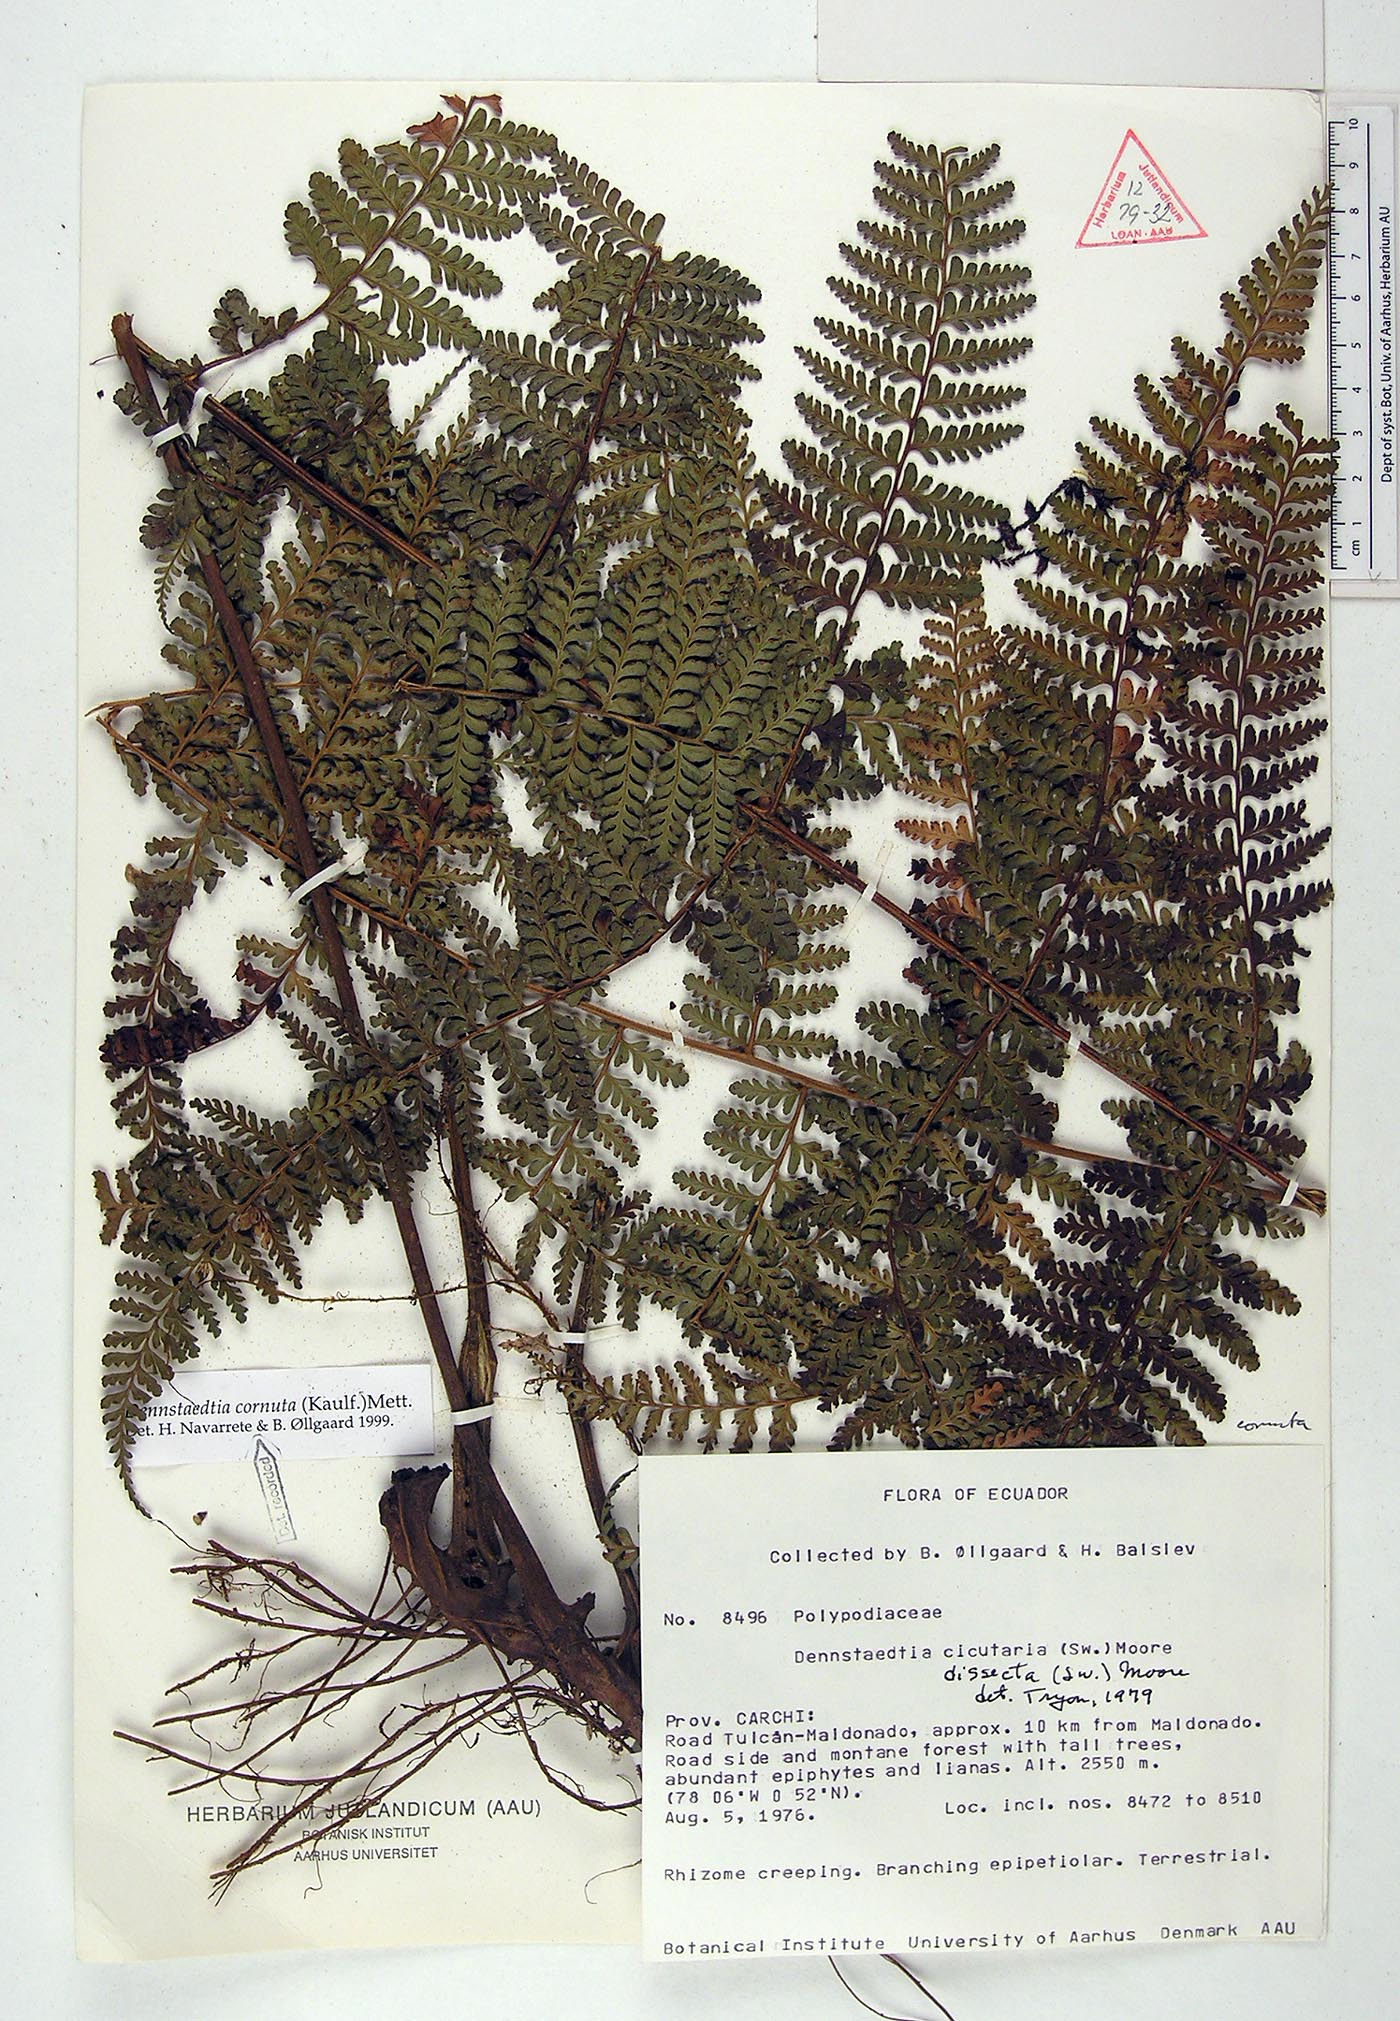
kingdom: Plantae
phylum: Tracheophyta
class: Polypodiopsida
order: Polypodiales
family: Dennstaedtiaceae
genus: Dennstaedtia
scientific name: Dennstaedtia cornuta
